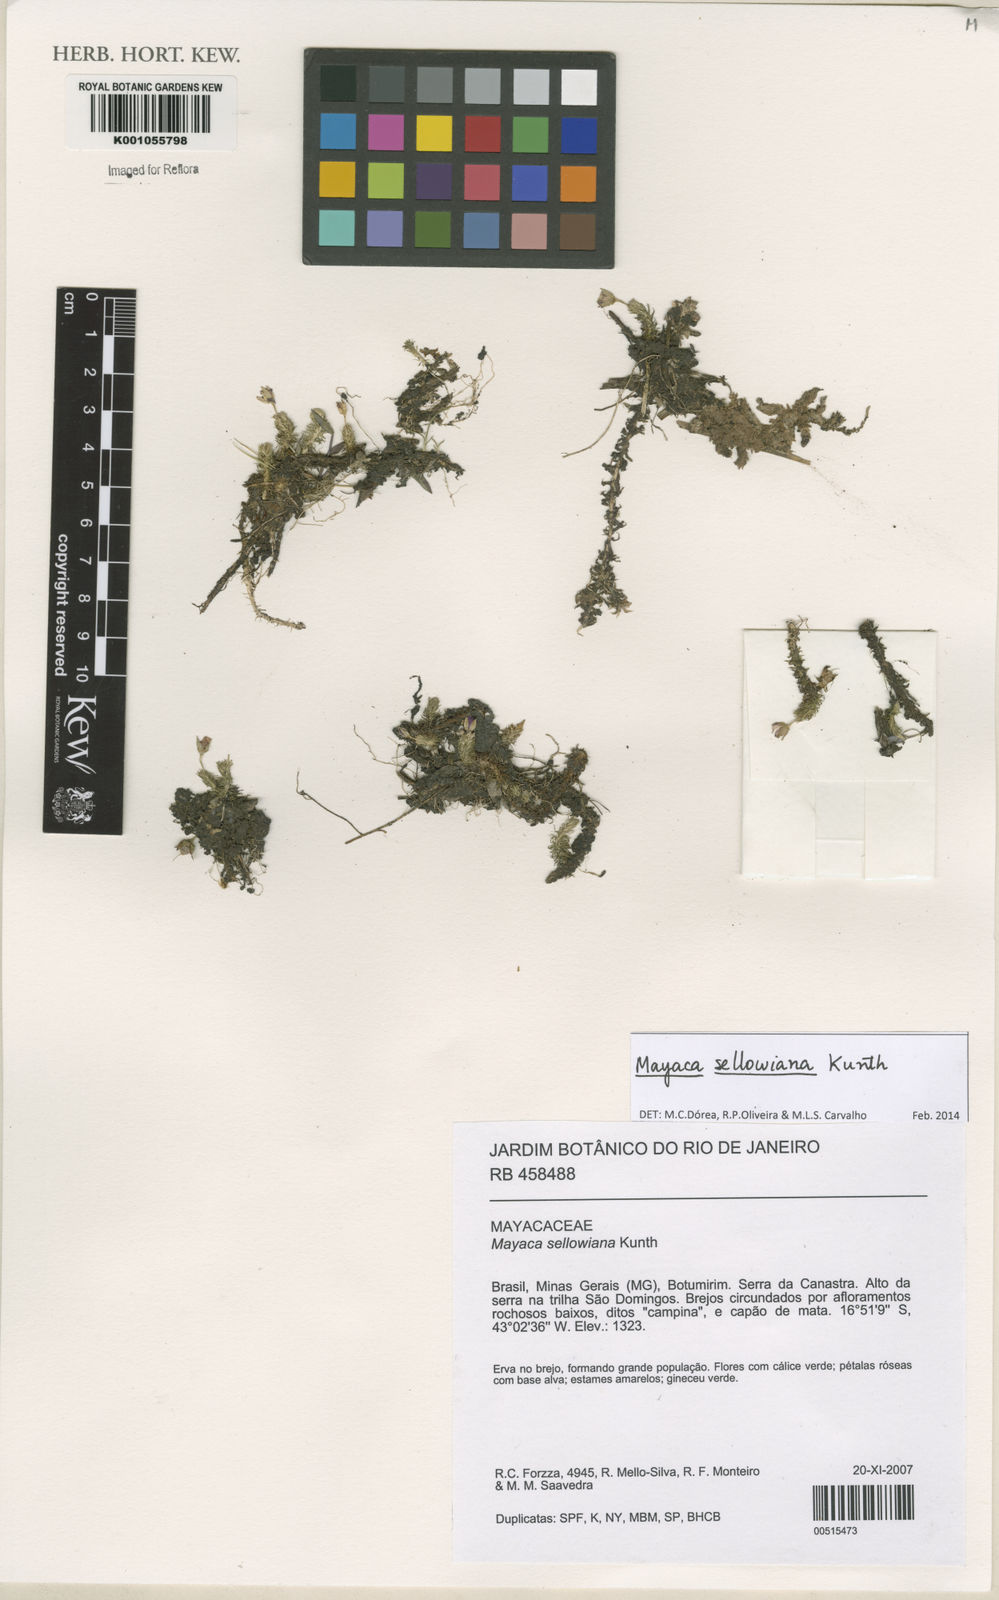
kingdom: Plantae
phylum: Tracheophyta
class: Liliopsida
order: Poales
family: Mayacaceae
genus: Mayaca
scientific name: Mayaca sellowiana
